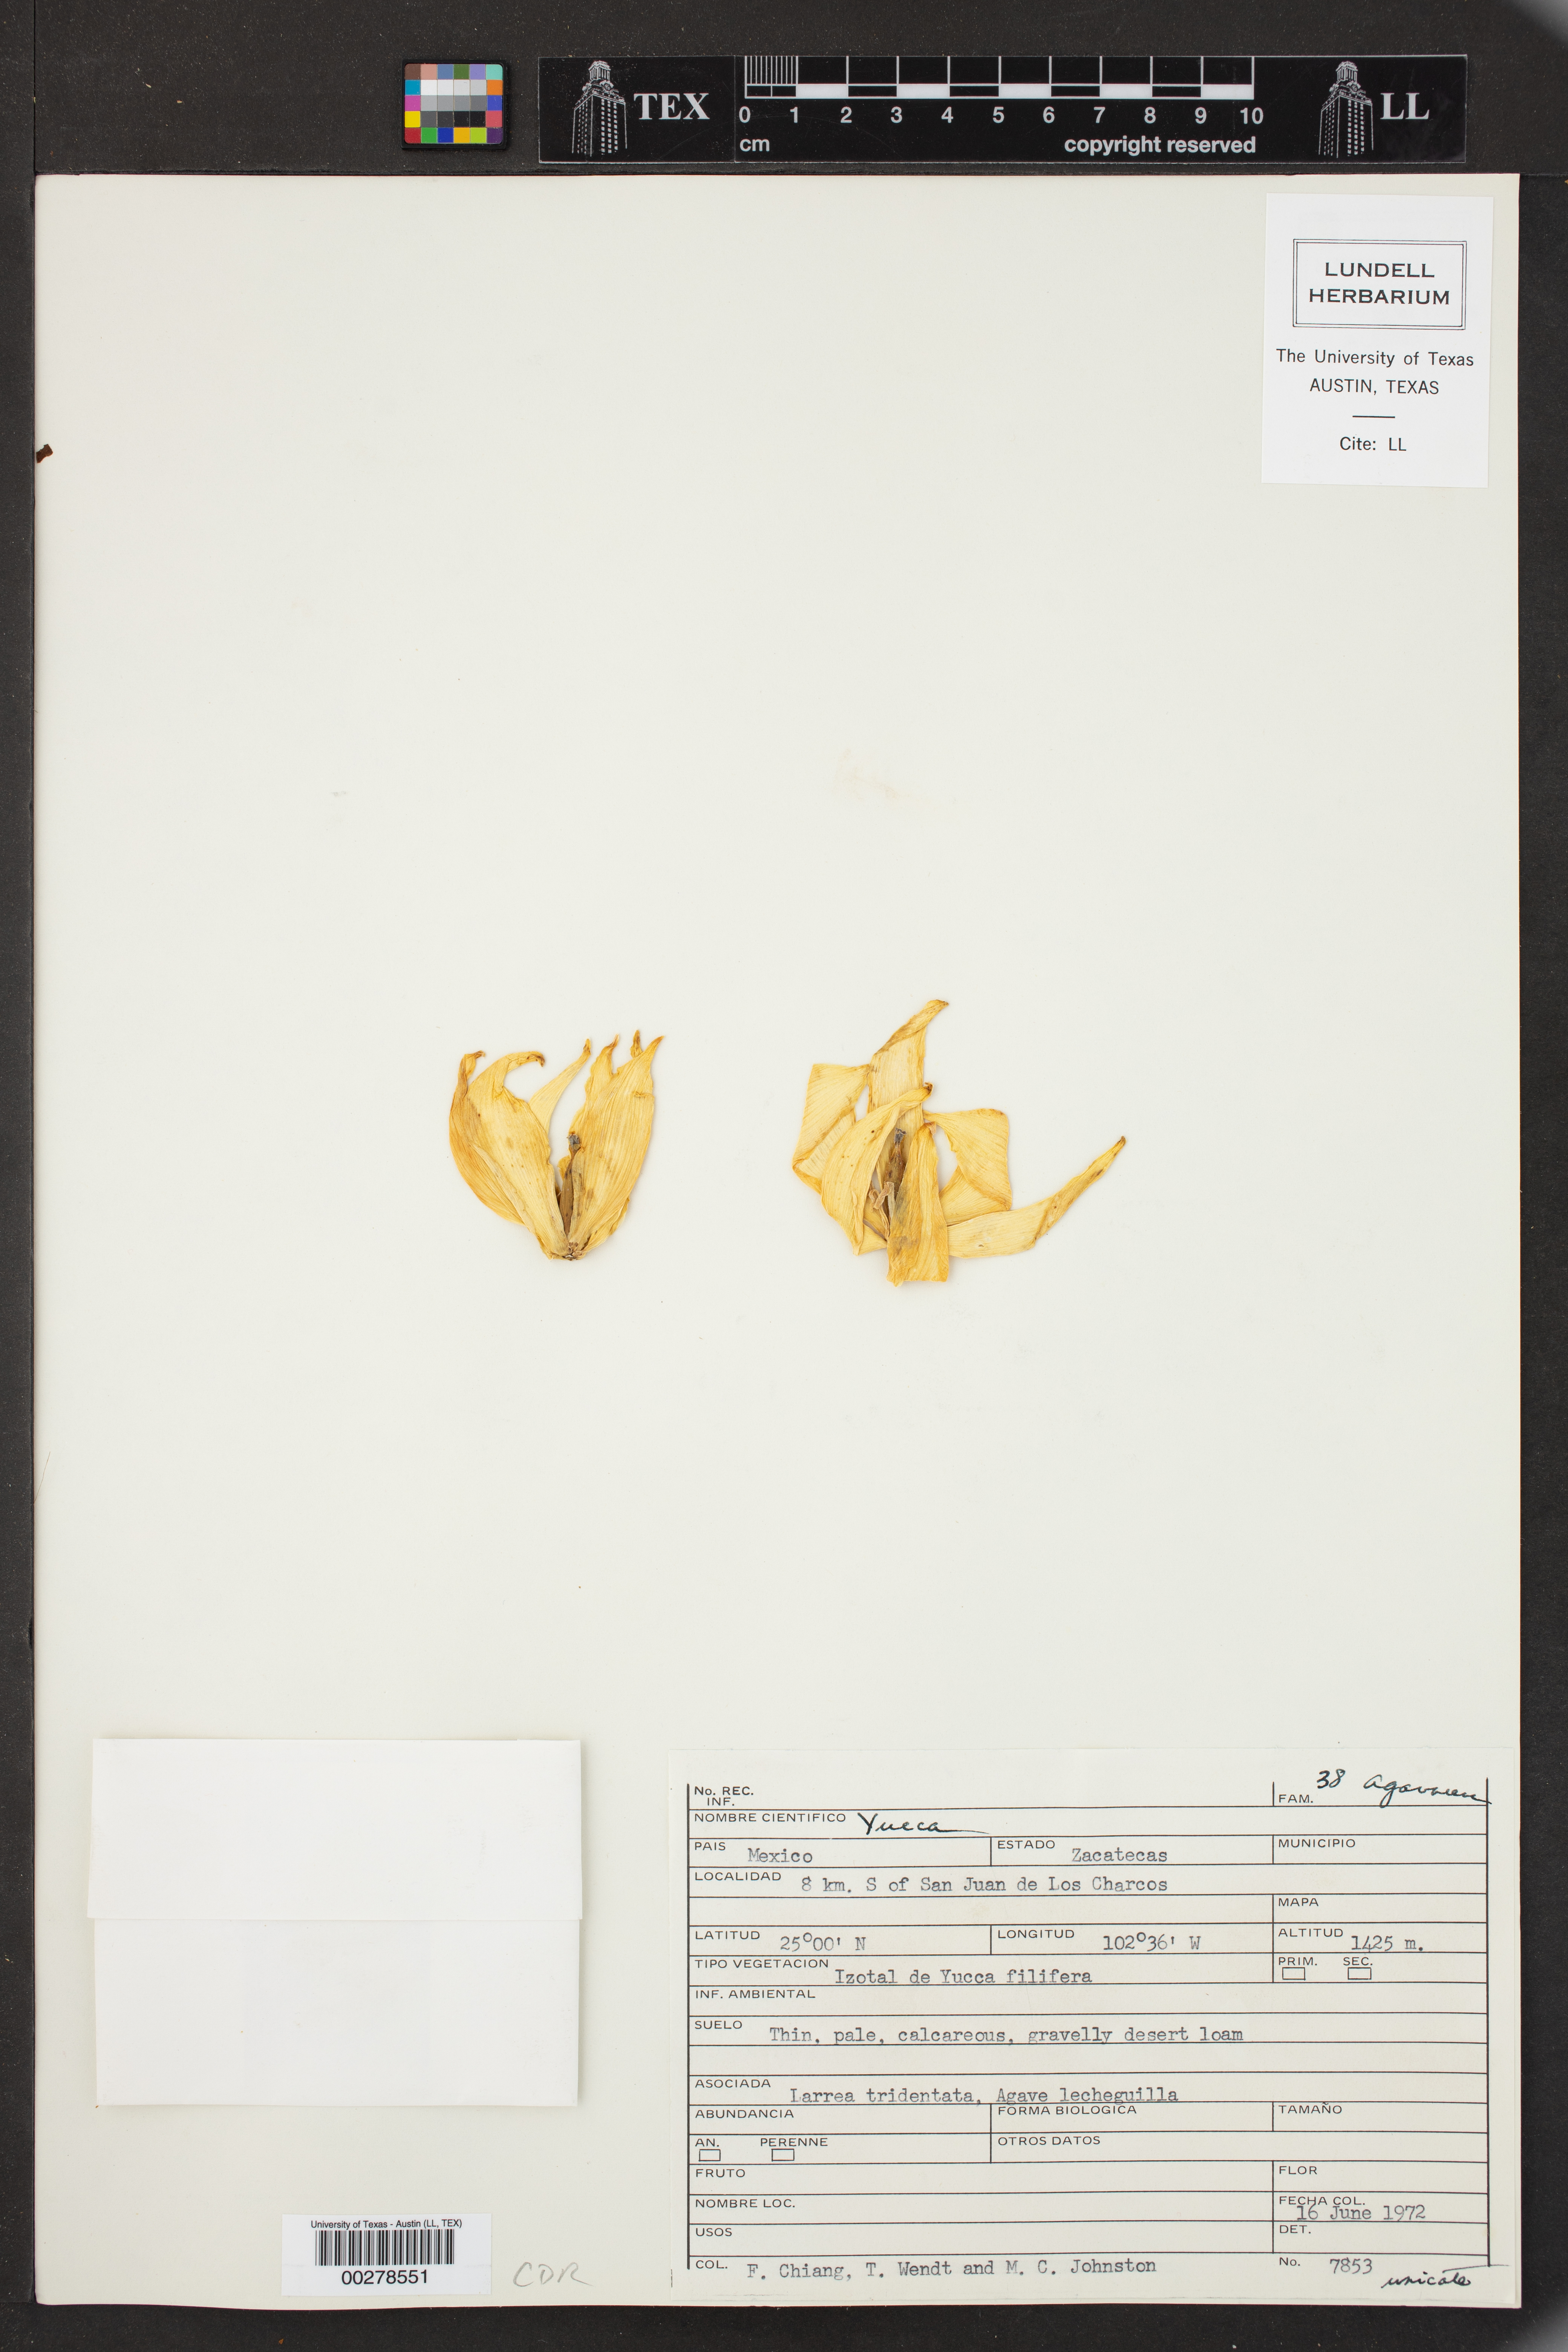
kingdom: Plantae
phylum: Tracheophyta
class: Liliopsida
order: Asparagales
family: Asparagaceae
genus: Yucca
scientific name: Yucca
